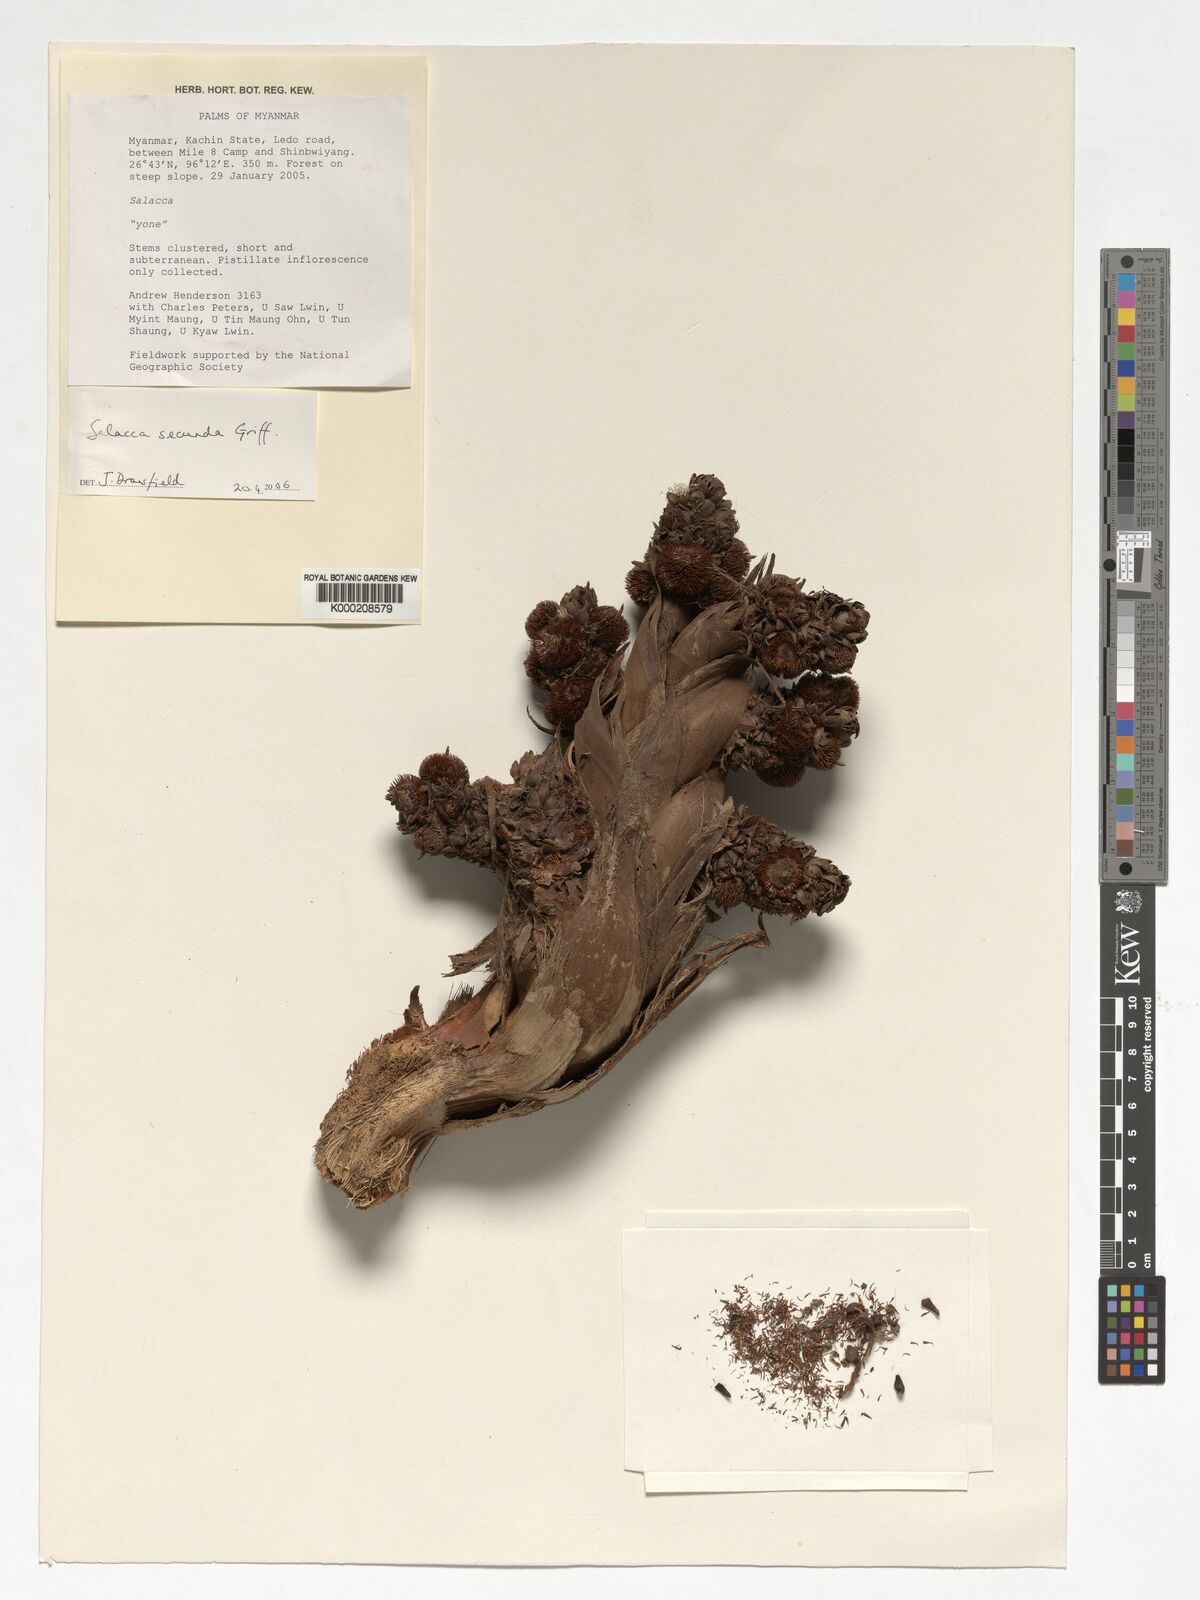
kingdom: Plantae
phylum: Tracheophyta
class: Liliopsida
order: Arecales
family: Arecaceae
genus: Salacca
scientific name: Salacca secunda
